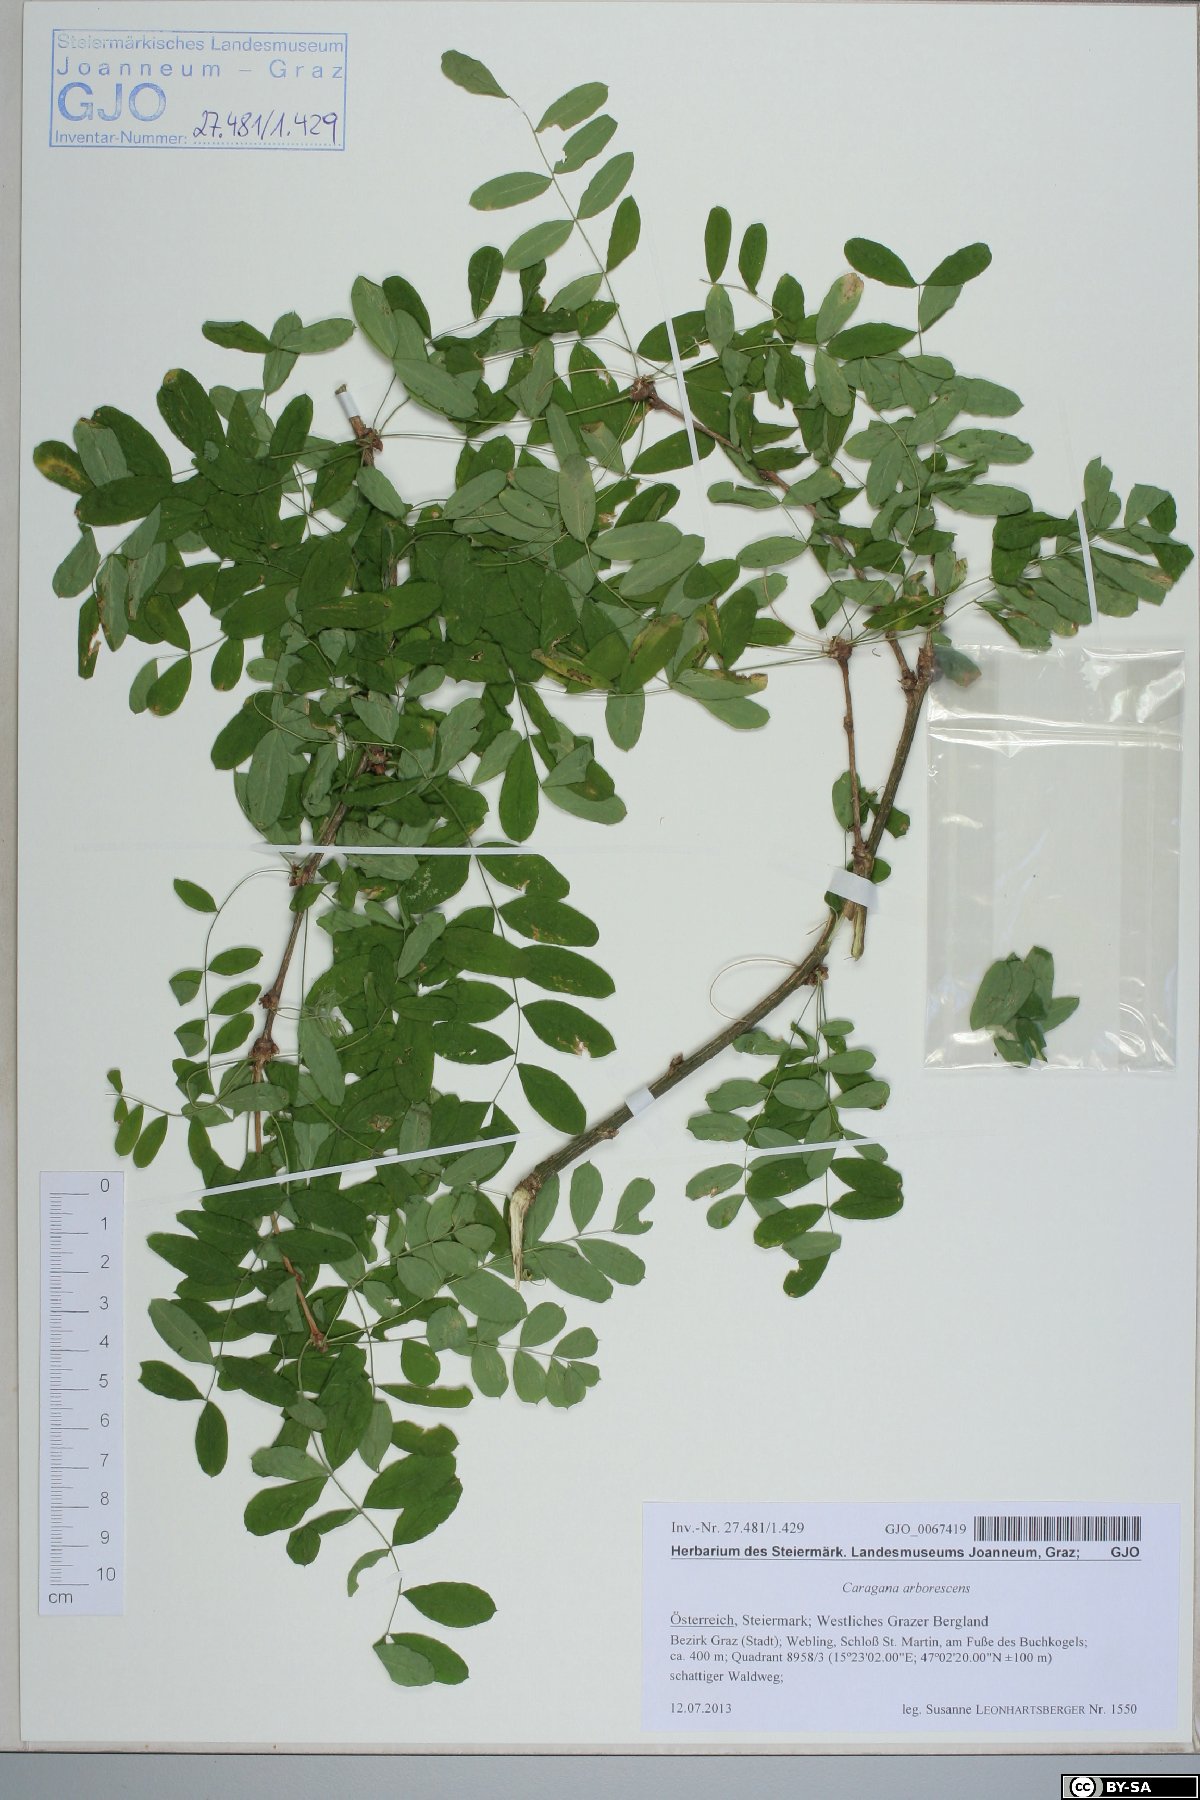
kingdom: Plantae
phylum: Tracheophyta
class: Magnoliopsida
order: Fabales
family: Fabaceae
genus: Caragana
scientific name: Caragana arborescens
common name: Siberian peashrub
